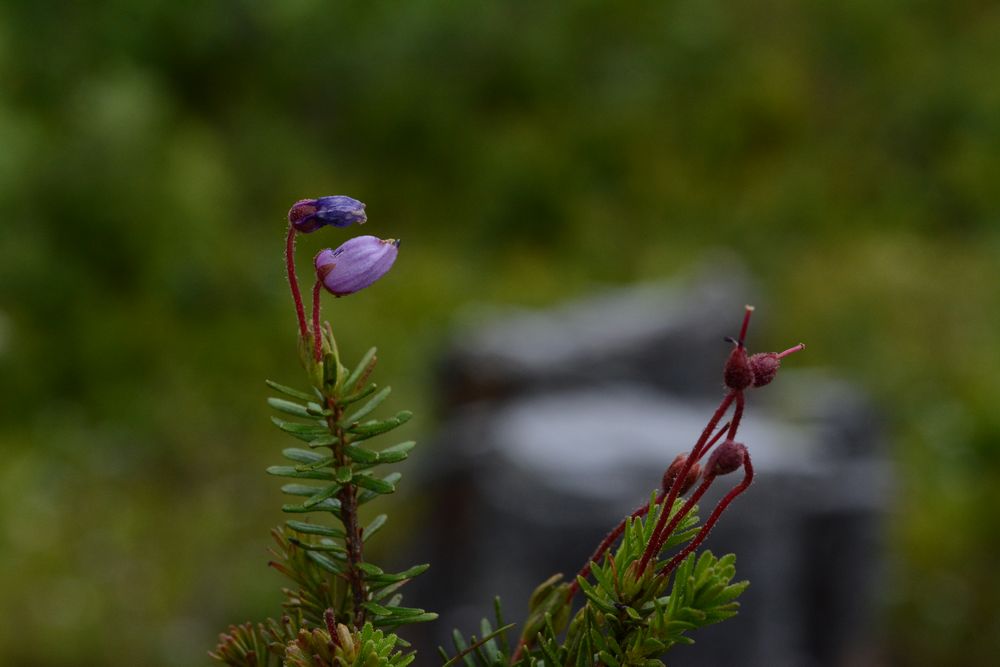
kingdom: Plantae
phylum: Tracheophyta
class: Magnoliopsida
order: Ericales
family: Ericaceae
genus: Phyllodoce
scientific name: Phyllodoce caerulea
